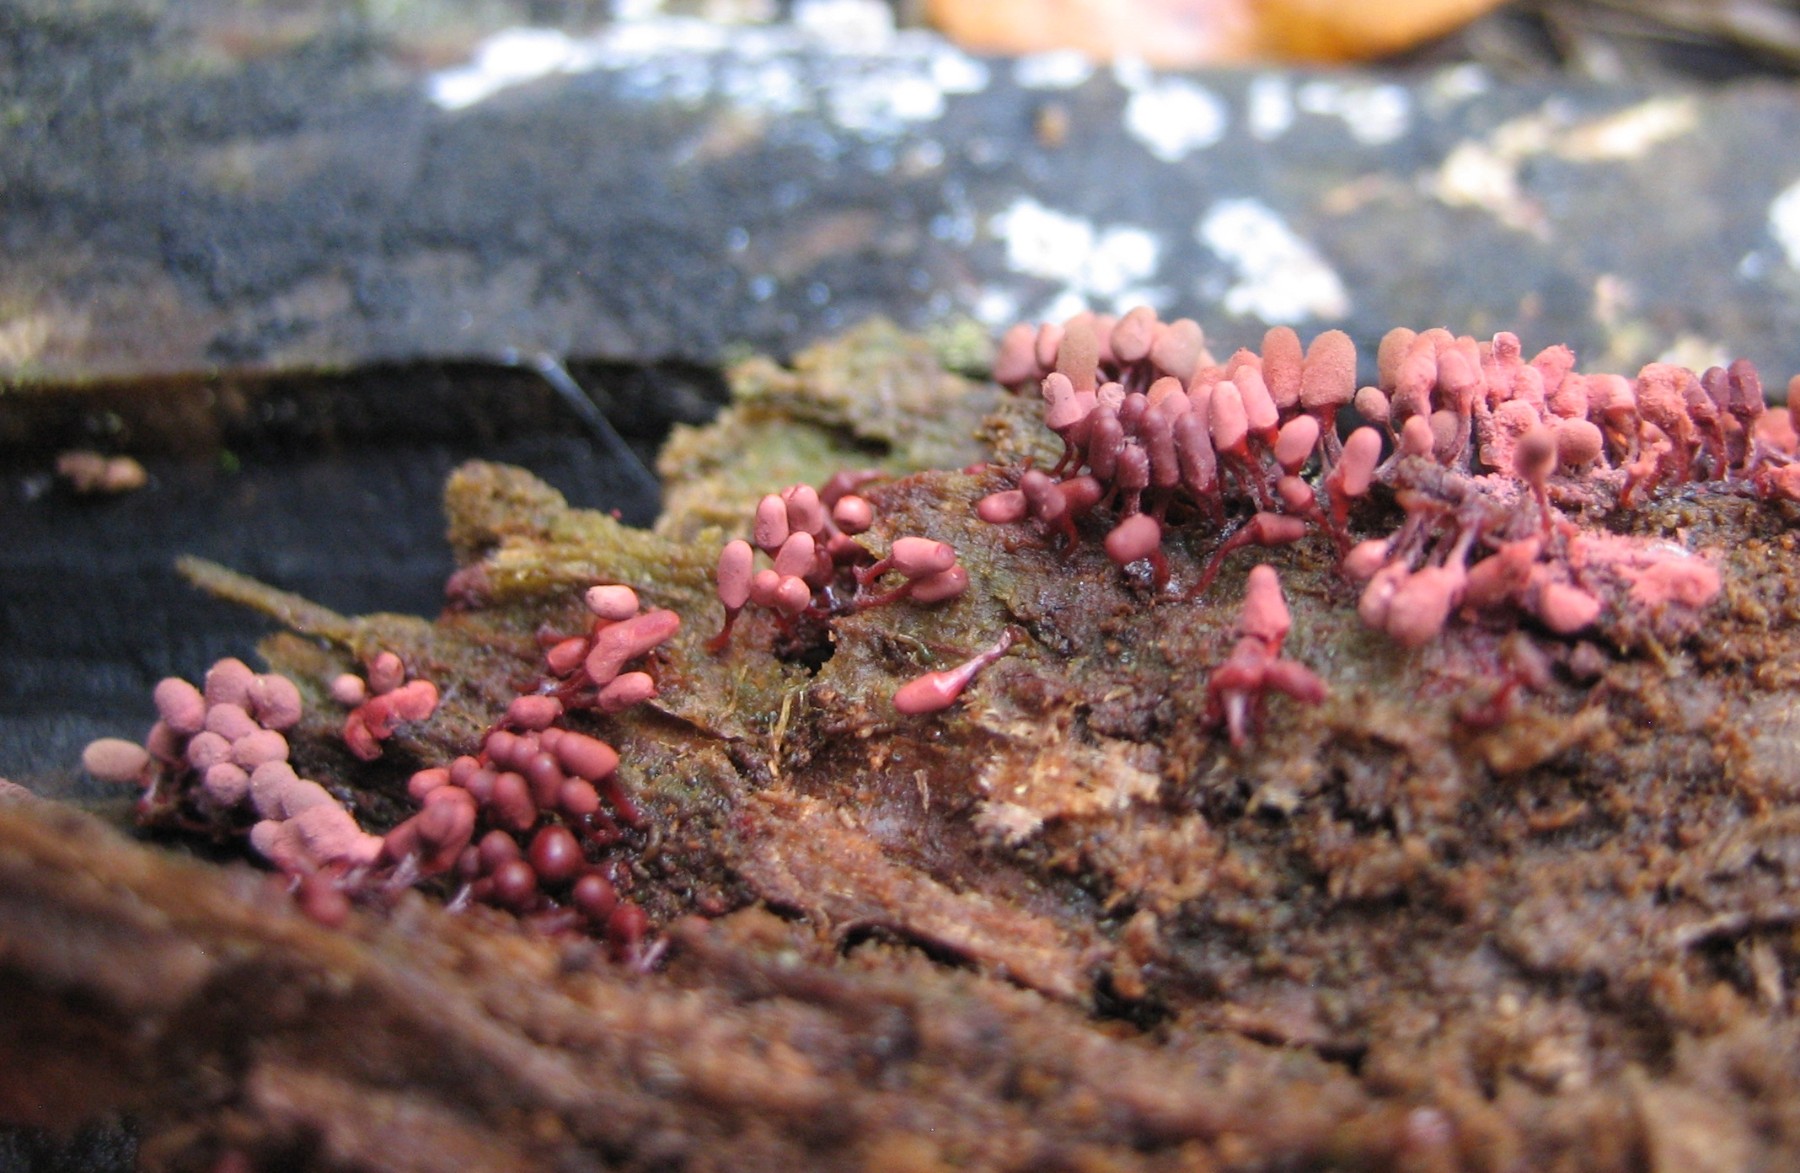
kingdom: Protozoa
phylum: Mycetozoa
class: Myxomycetes
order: Trichiales
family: Arcyriaceae
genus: Arcyria
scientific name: Arcyria denudata
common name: karminrød skålsvøb
